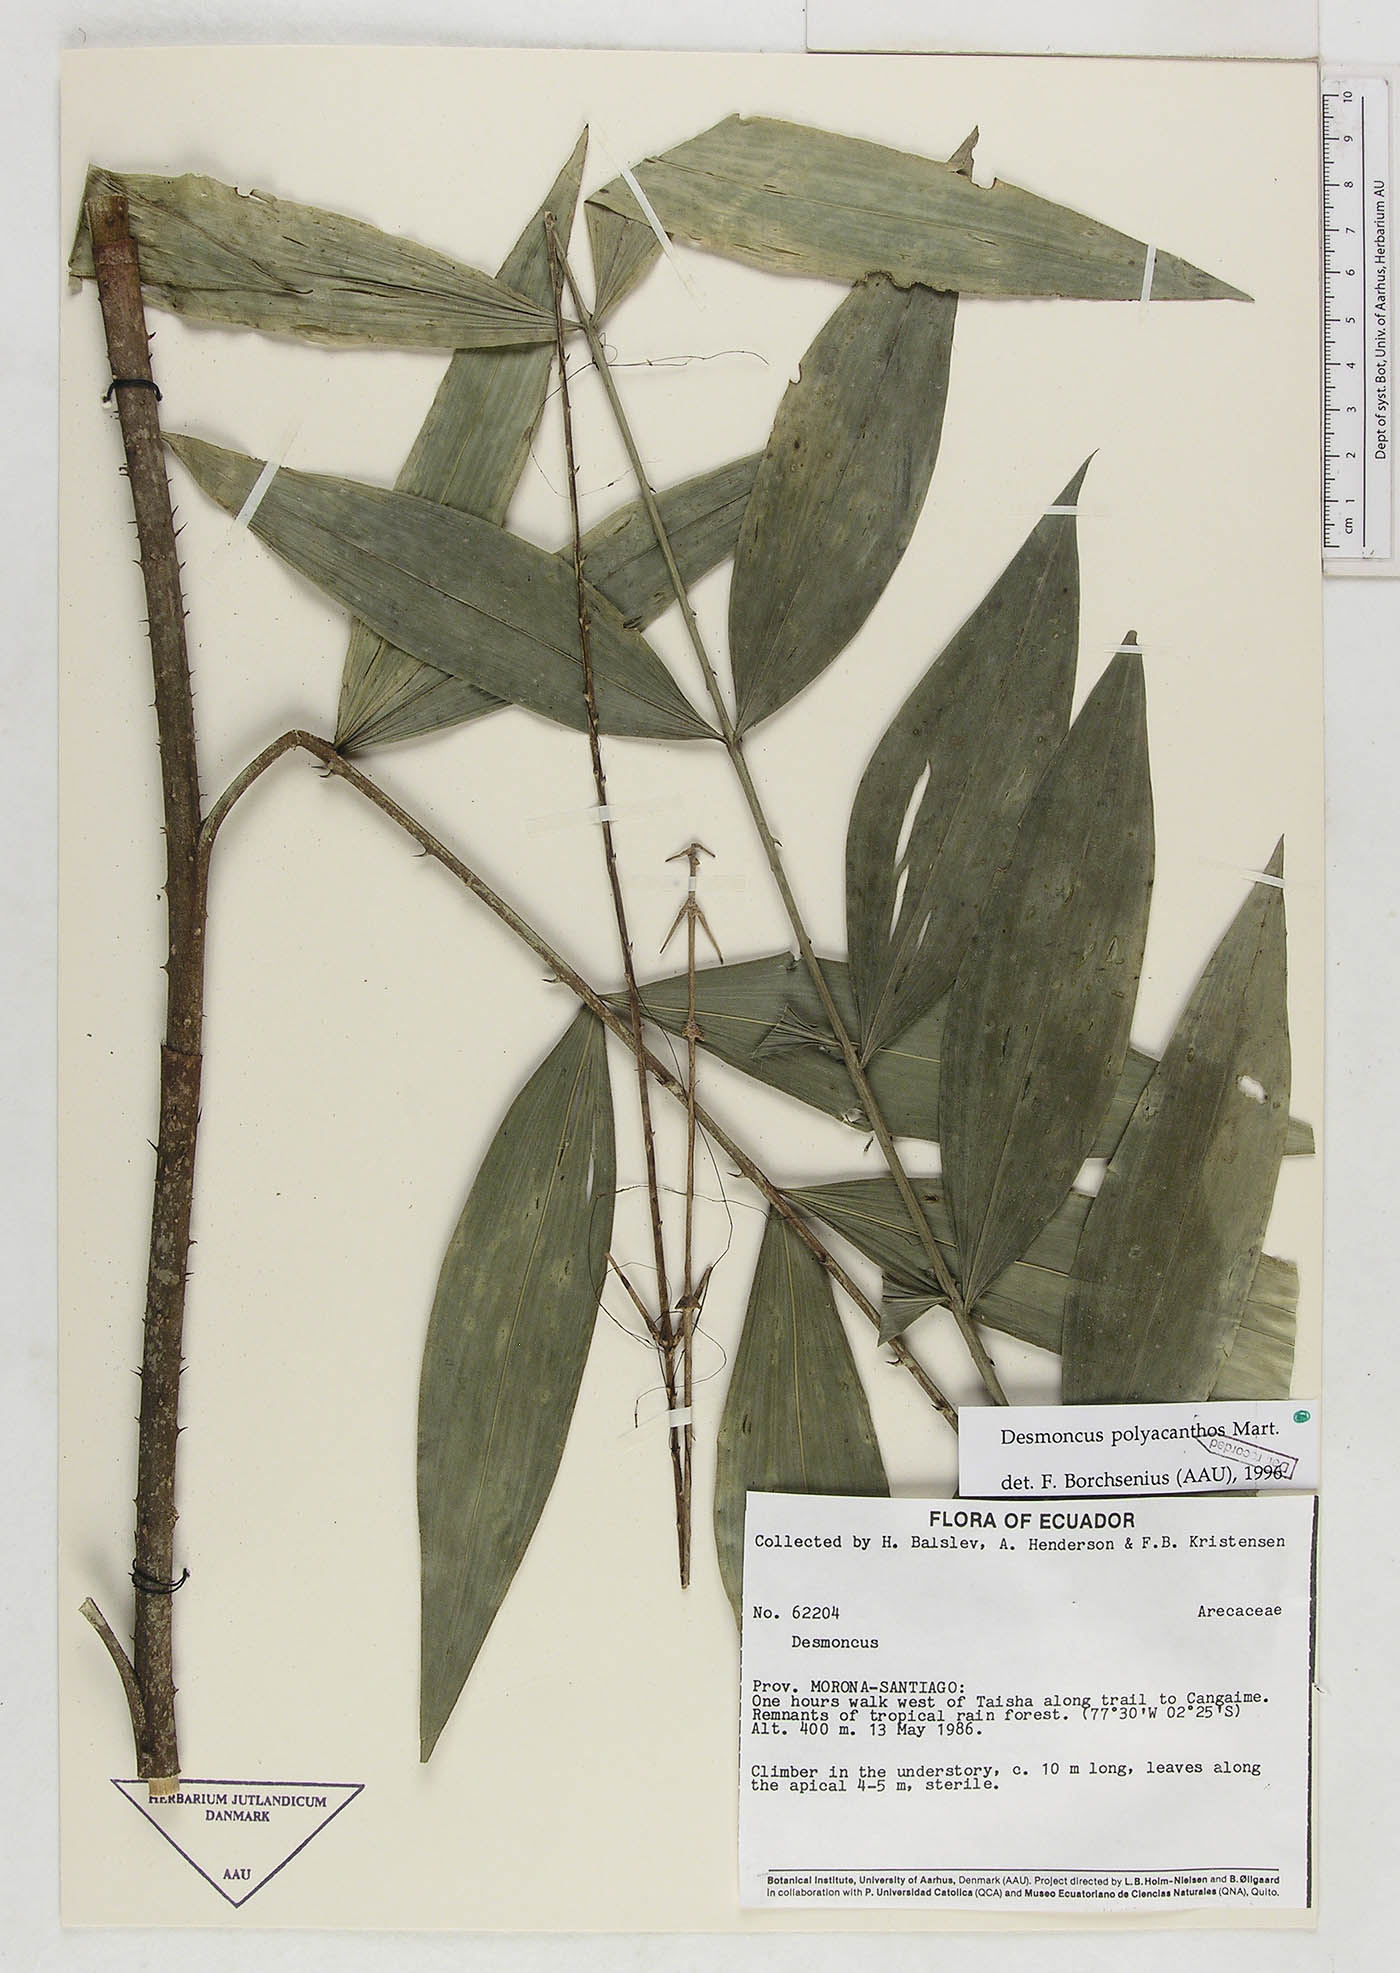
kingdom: Plantae
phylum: Tracheophyta
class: Liliopsida
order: Arecales
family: Arecaceae
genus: Desmoncus
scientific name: Desmoncus prunifer
